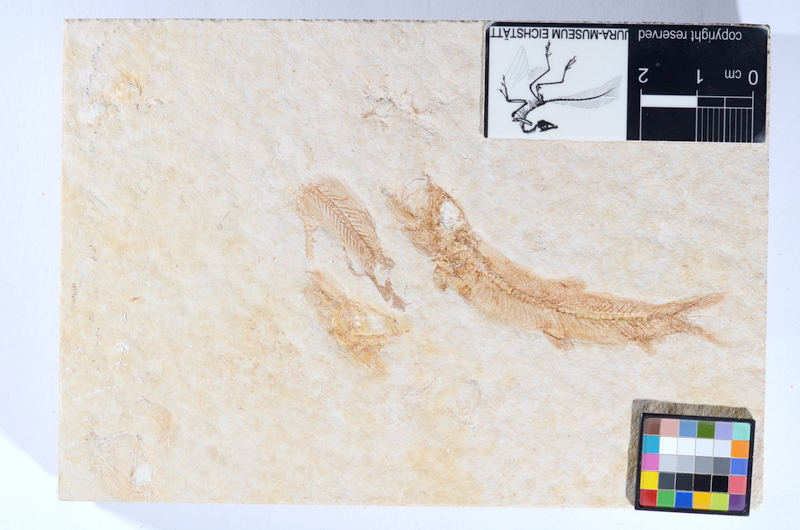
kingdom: Animalia
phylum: Chordata
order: Salmoniformes
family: Orthogonikleithridae
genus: Leptolepides
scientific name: Leptolepides sprattiformis
